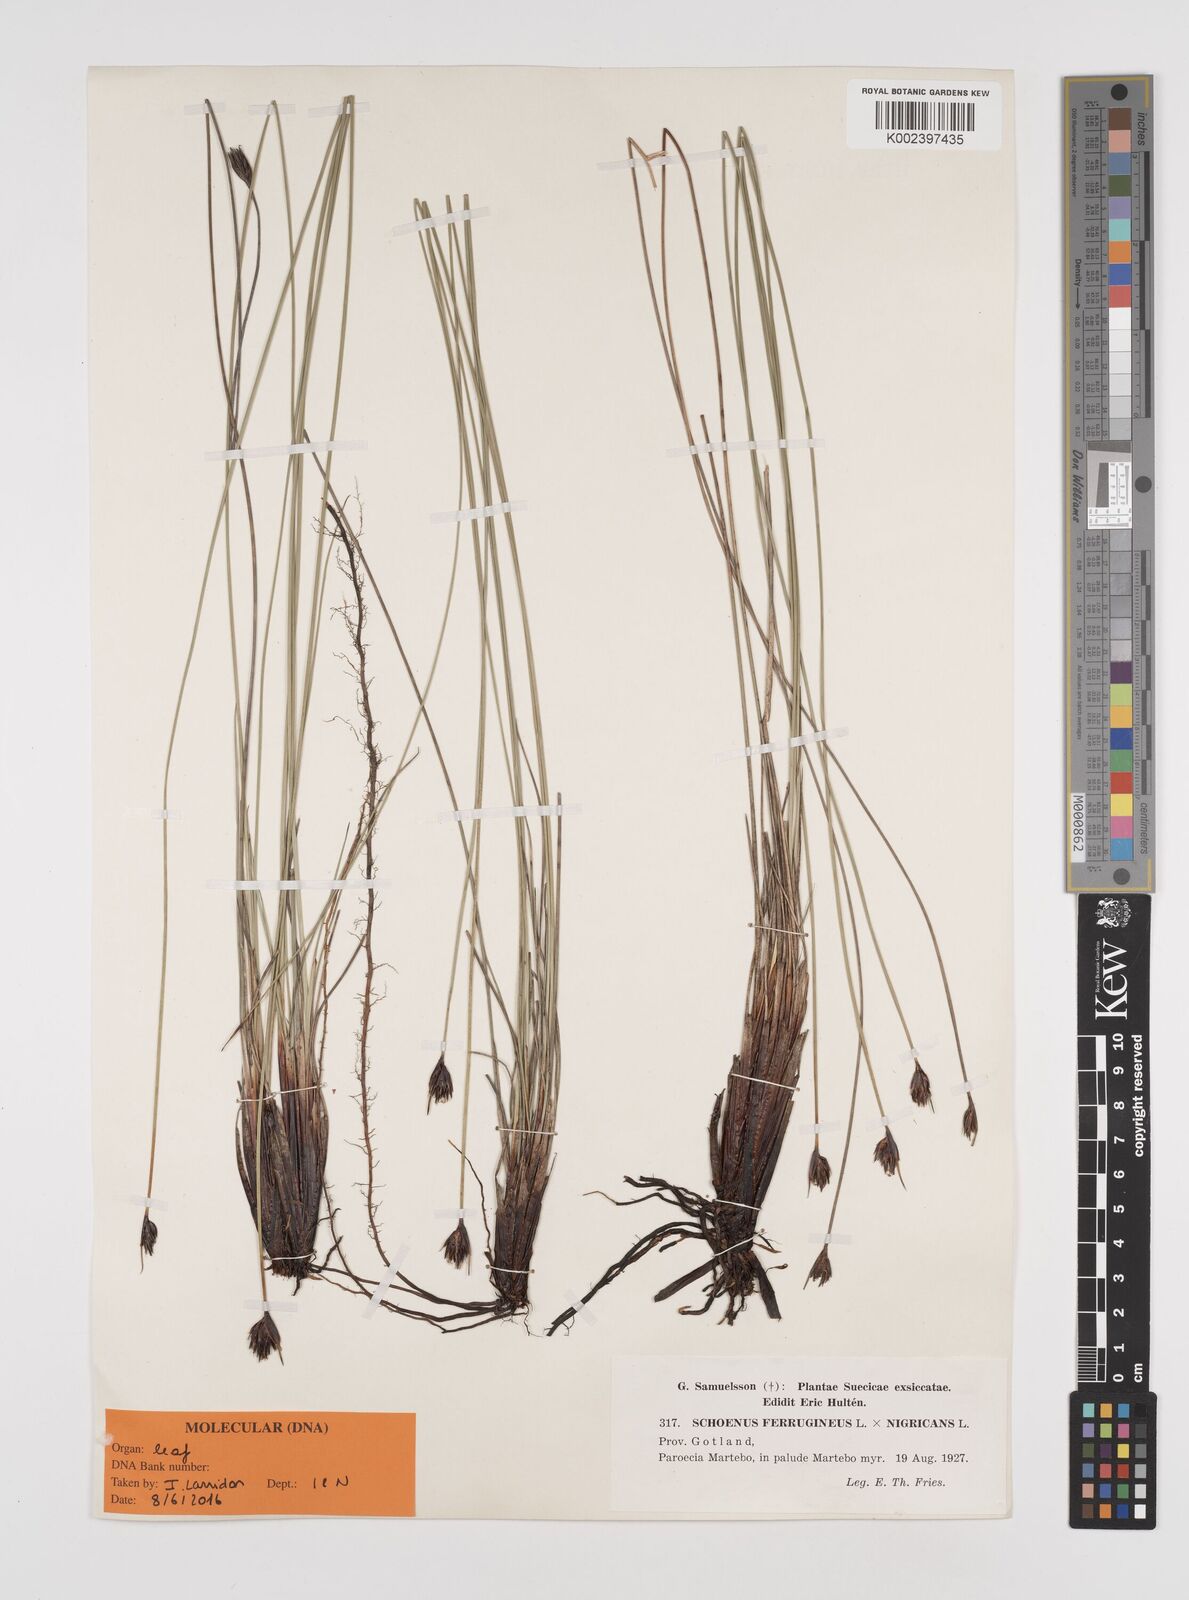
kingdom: Plantae
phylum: Tracheophyta
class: Liliopsida
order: Poales
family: Cyperaceae
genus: Schoenus
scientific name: Schoenus ferrugineus
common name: Brown bog-rush
